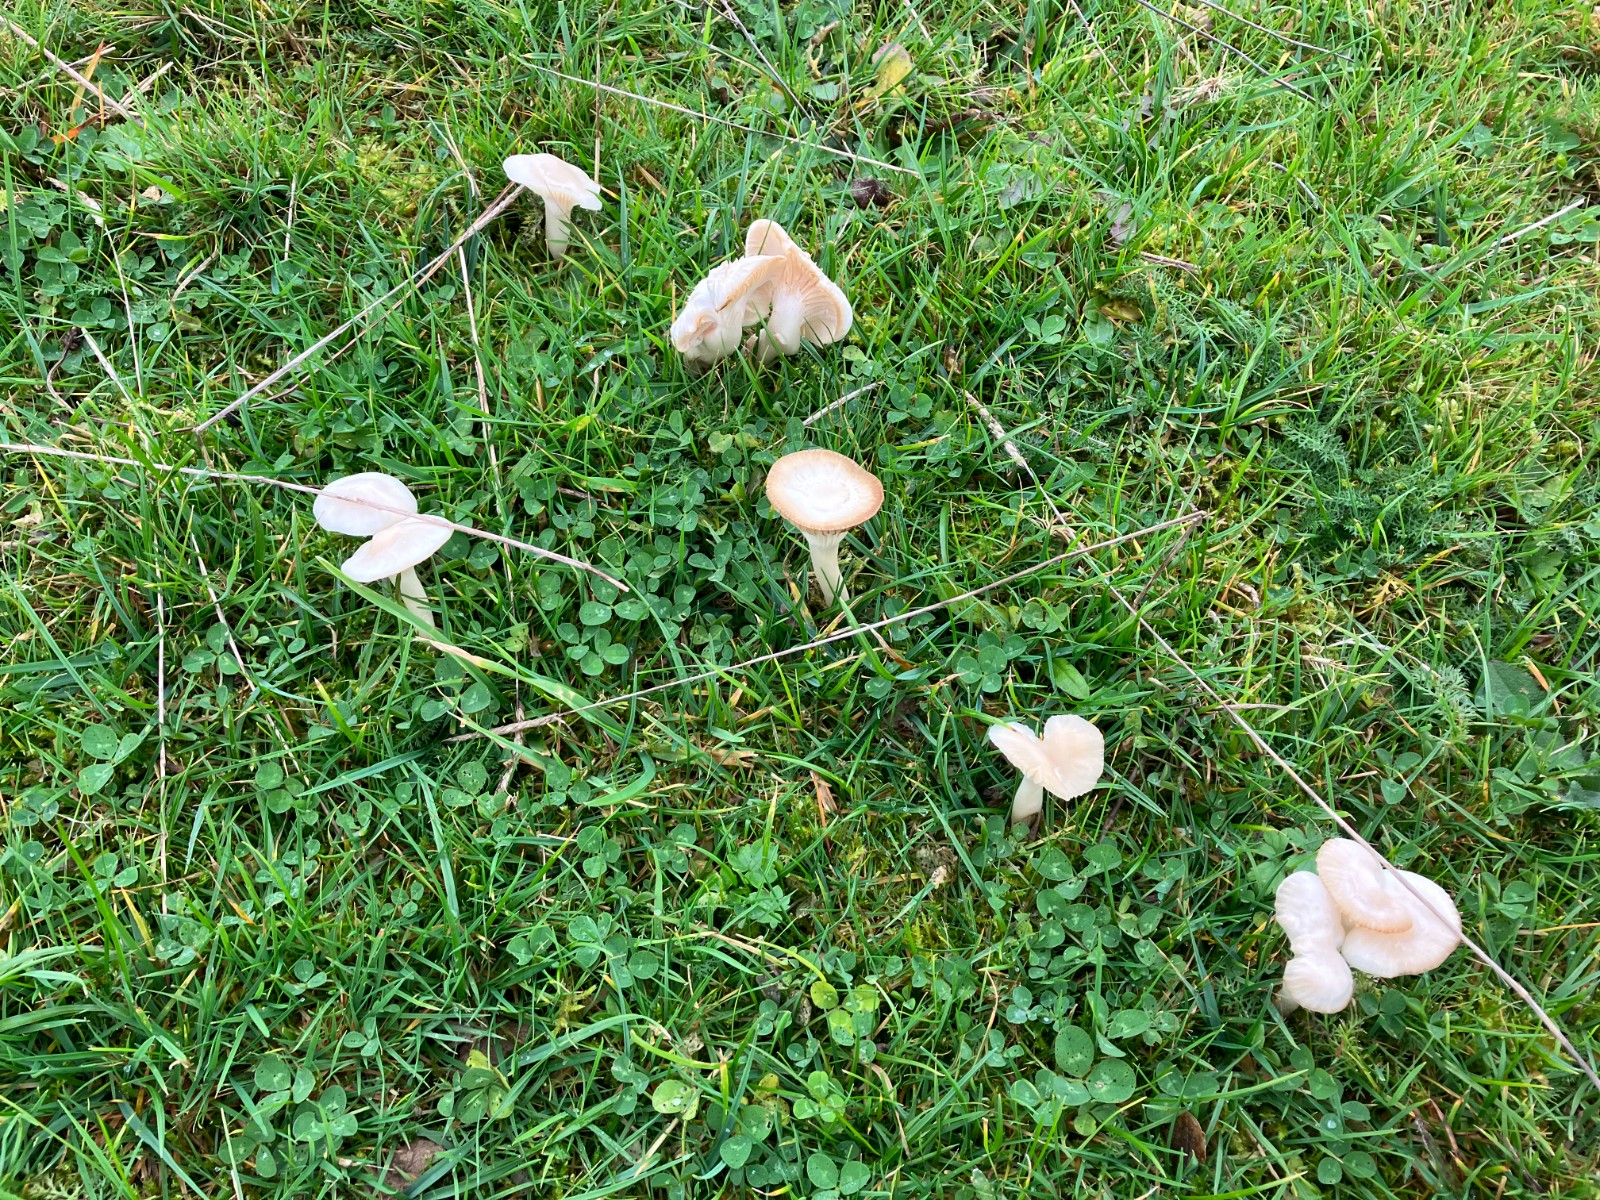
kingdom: Fungi
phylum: Basidiomycota
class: Agaricomycetes
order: Agaricales
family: Hygrophoraceae
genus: Cuphophyllus
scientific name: Cuphophyllus
